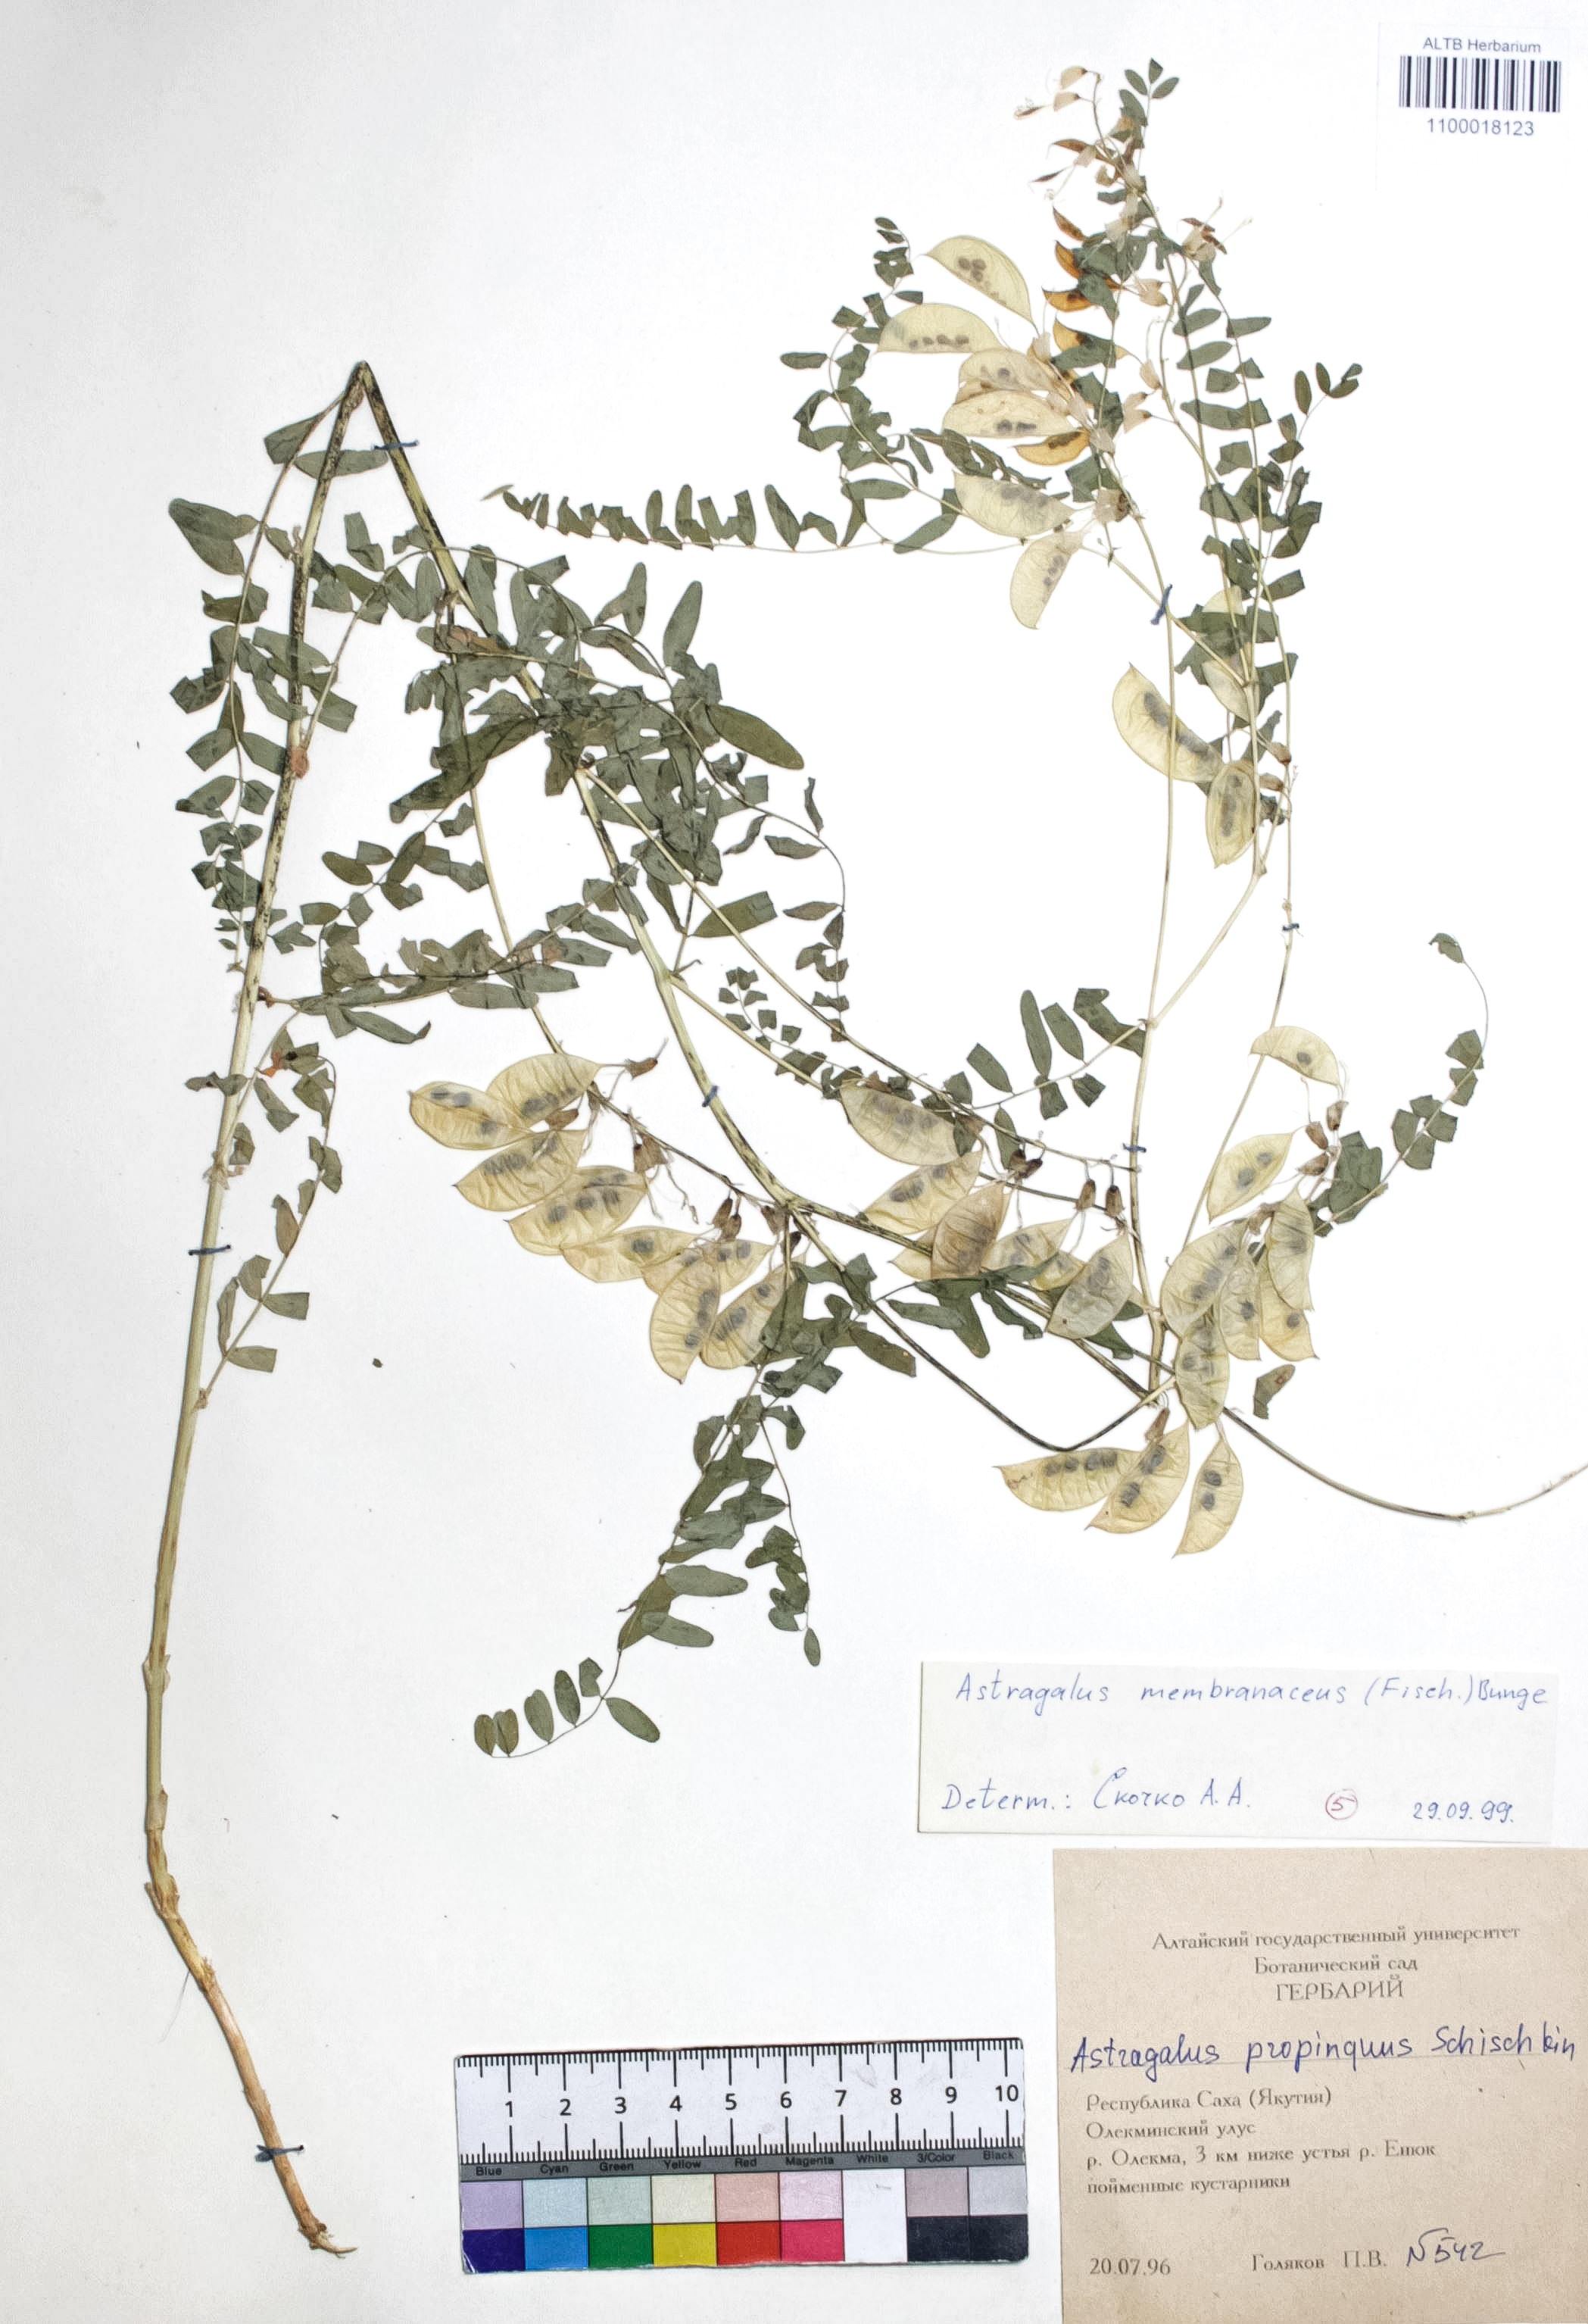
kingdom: Plantae
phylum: Tracheophyta
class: Magnoliopsida
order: Fabales
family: Fabaceae
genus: Astragalus
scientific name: Astragalus mongholicus
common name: Membranous milk-vetch
